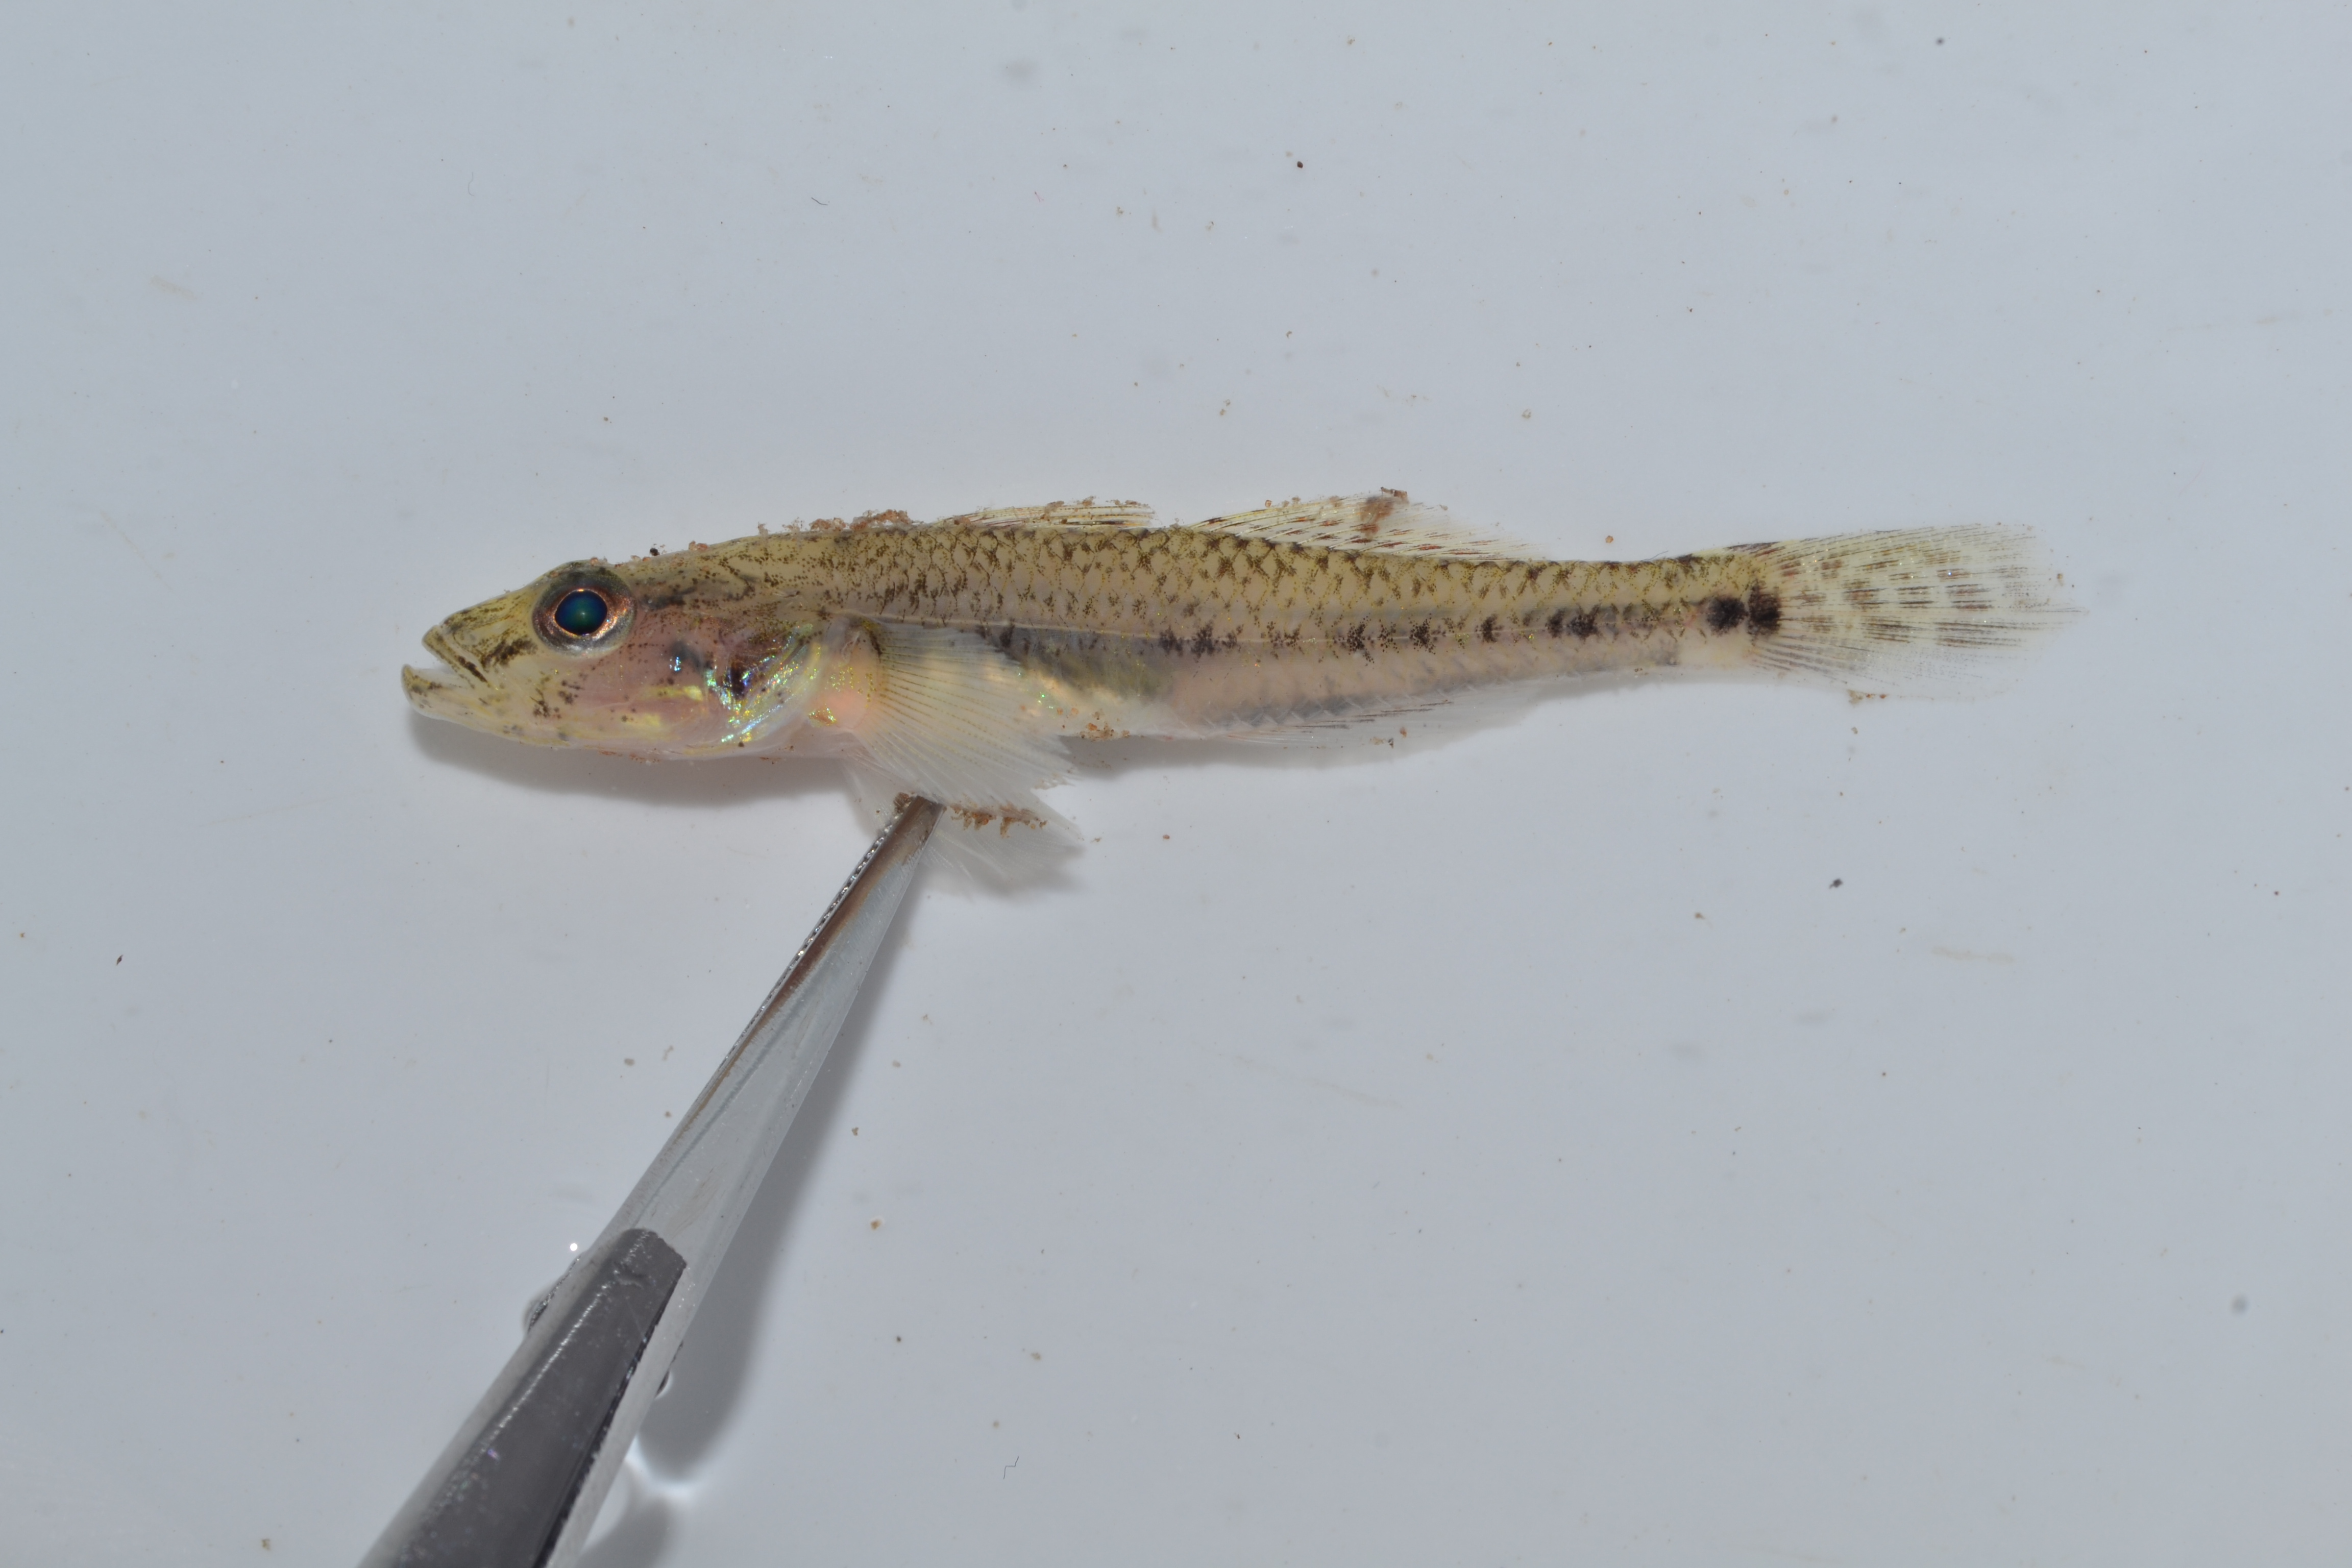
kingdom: Animalia
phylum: Chordata
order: Perciformes
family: Gobiidae
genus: Glossogobius
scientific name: Glossogobius callidus
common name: River goby
